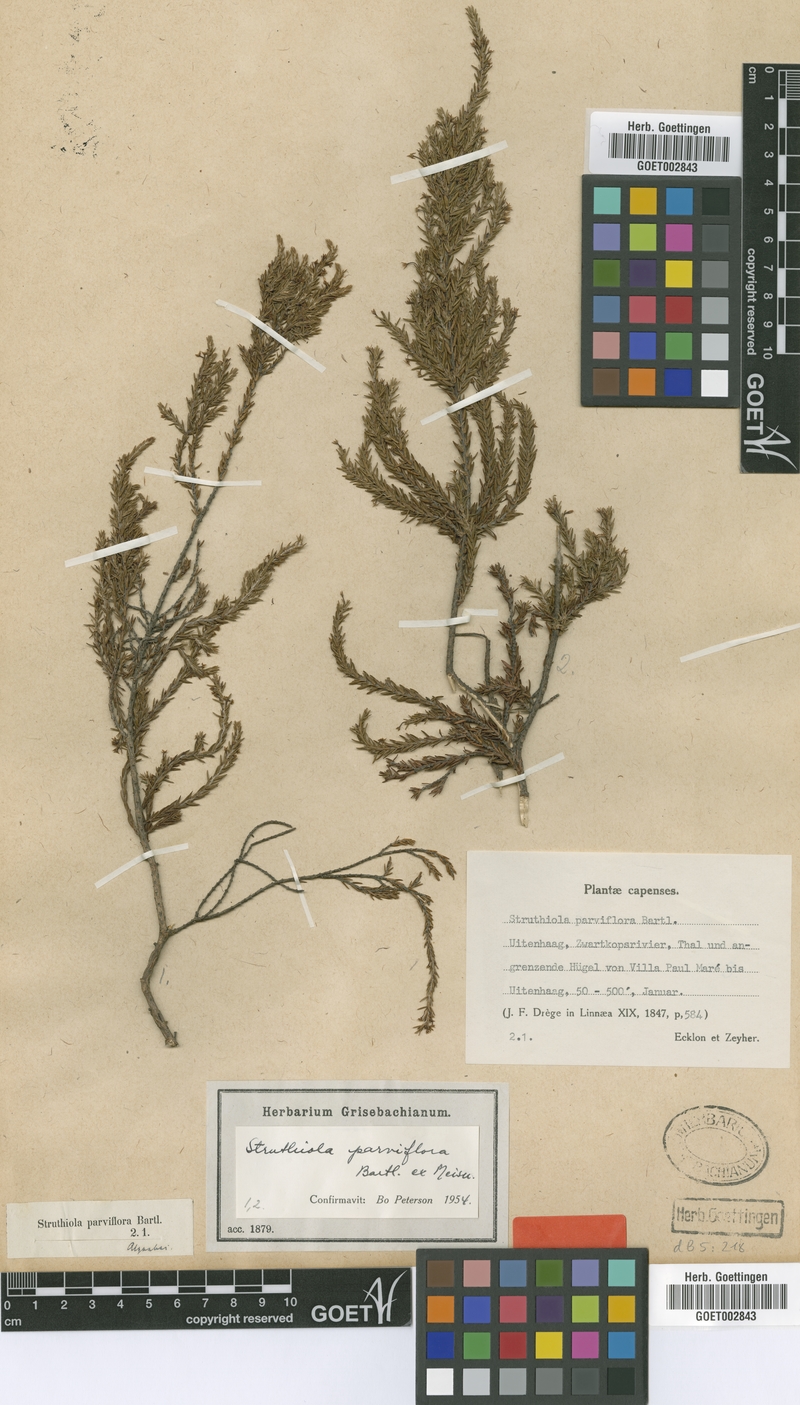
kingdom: Plantae
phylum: Tracheophyta
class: Magnoliopsida
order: Malvales
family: Thymelaeaceae
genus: Struthiola
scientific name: Struthiola parviflora
